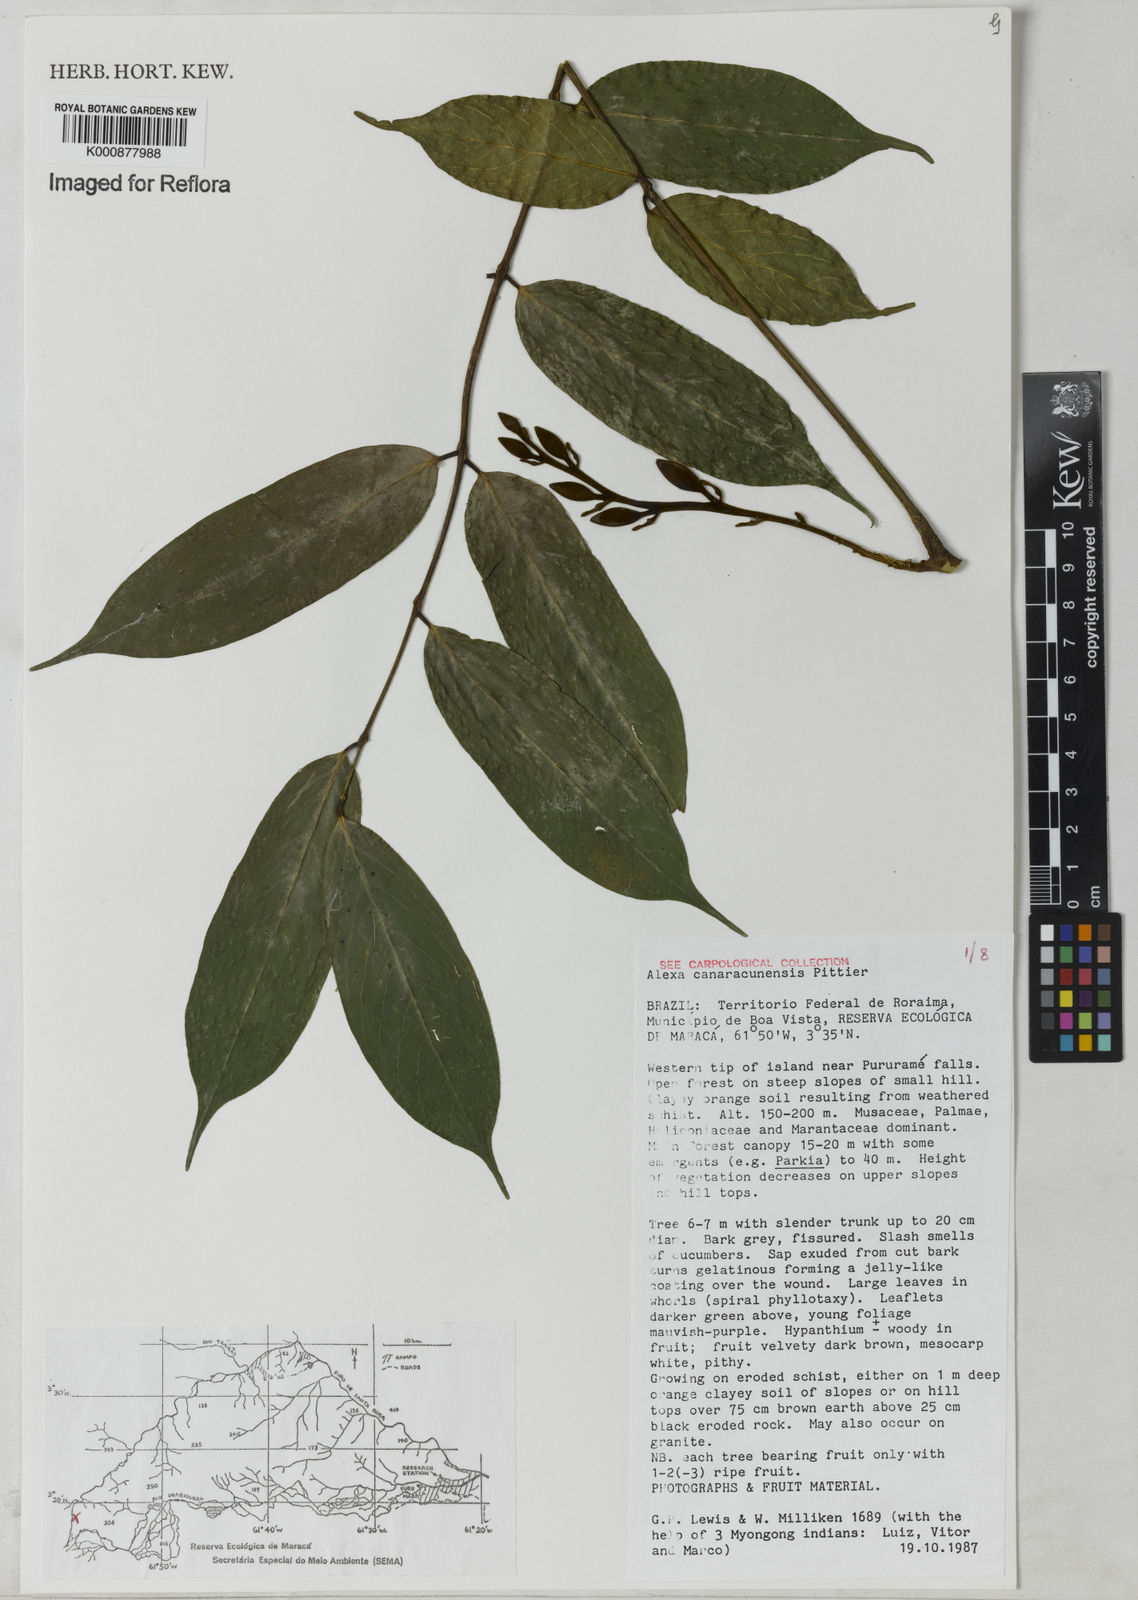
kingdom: Plantae
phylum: Tracheophyta
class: Magnoliopsida
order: Fabales
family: Fabaceae
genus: Alexa
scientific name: Alexa canaracunensis
